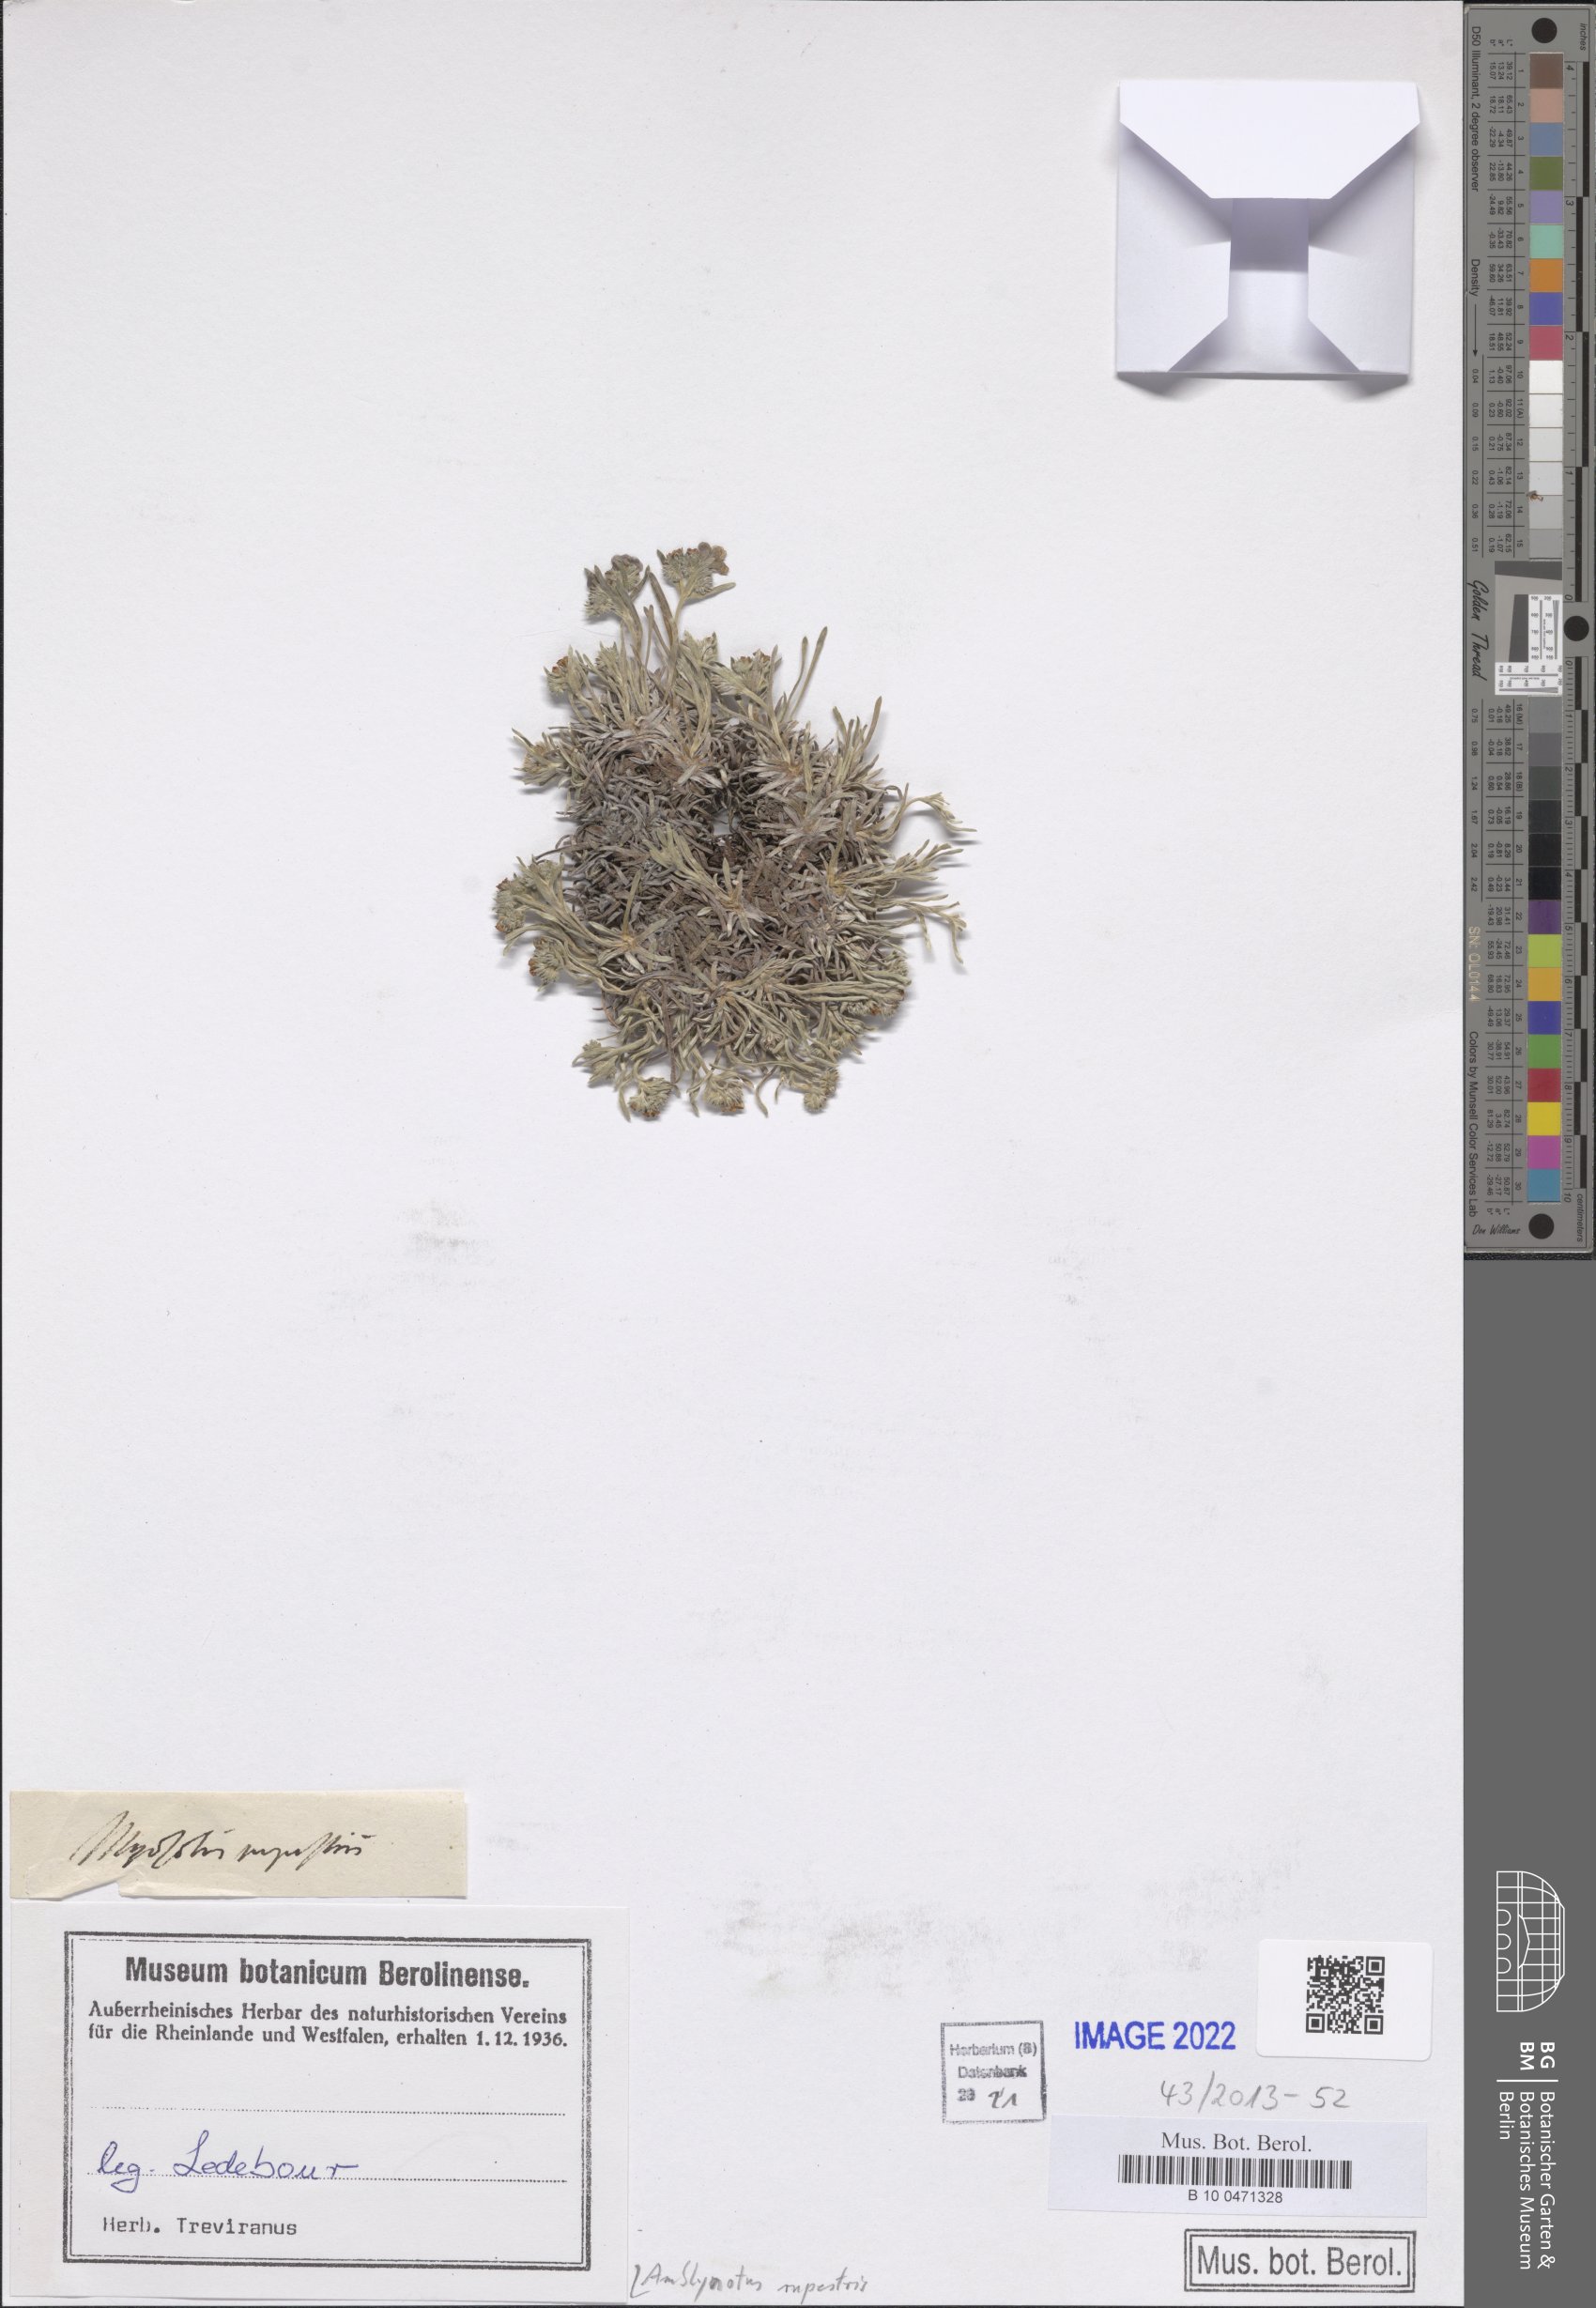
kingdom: Plantae
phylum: Tracheophyta
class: Magnoliopsida
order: Boraginales
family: Boraginaceae
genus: Eritrichium
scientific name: Eritrichium rupestre
